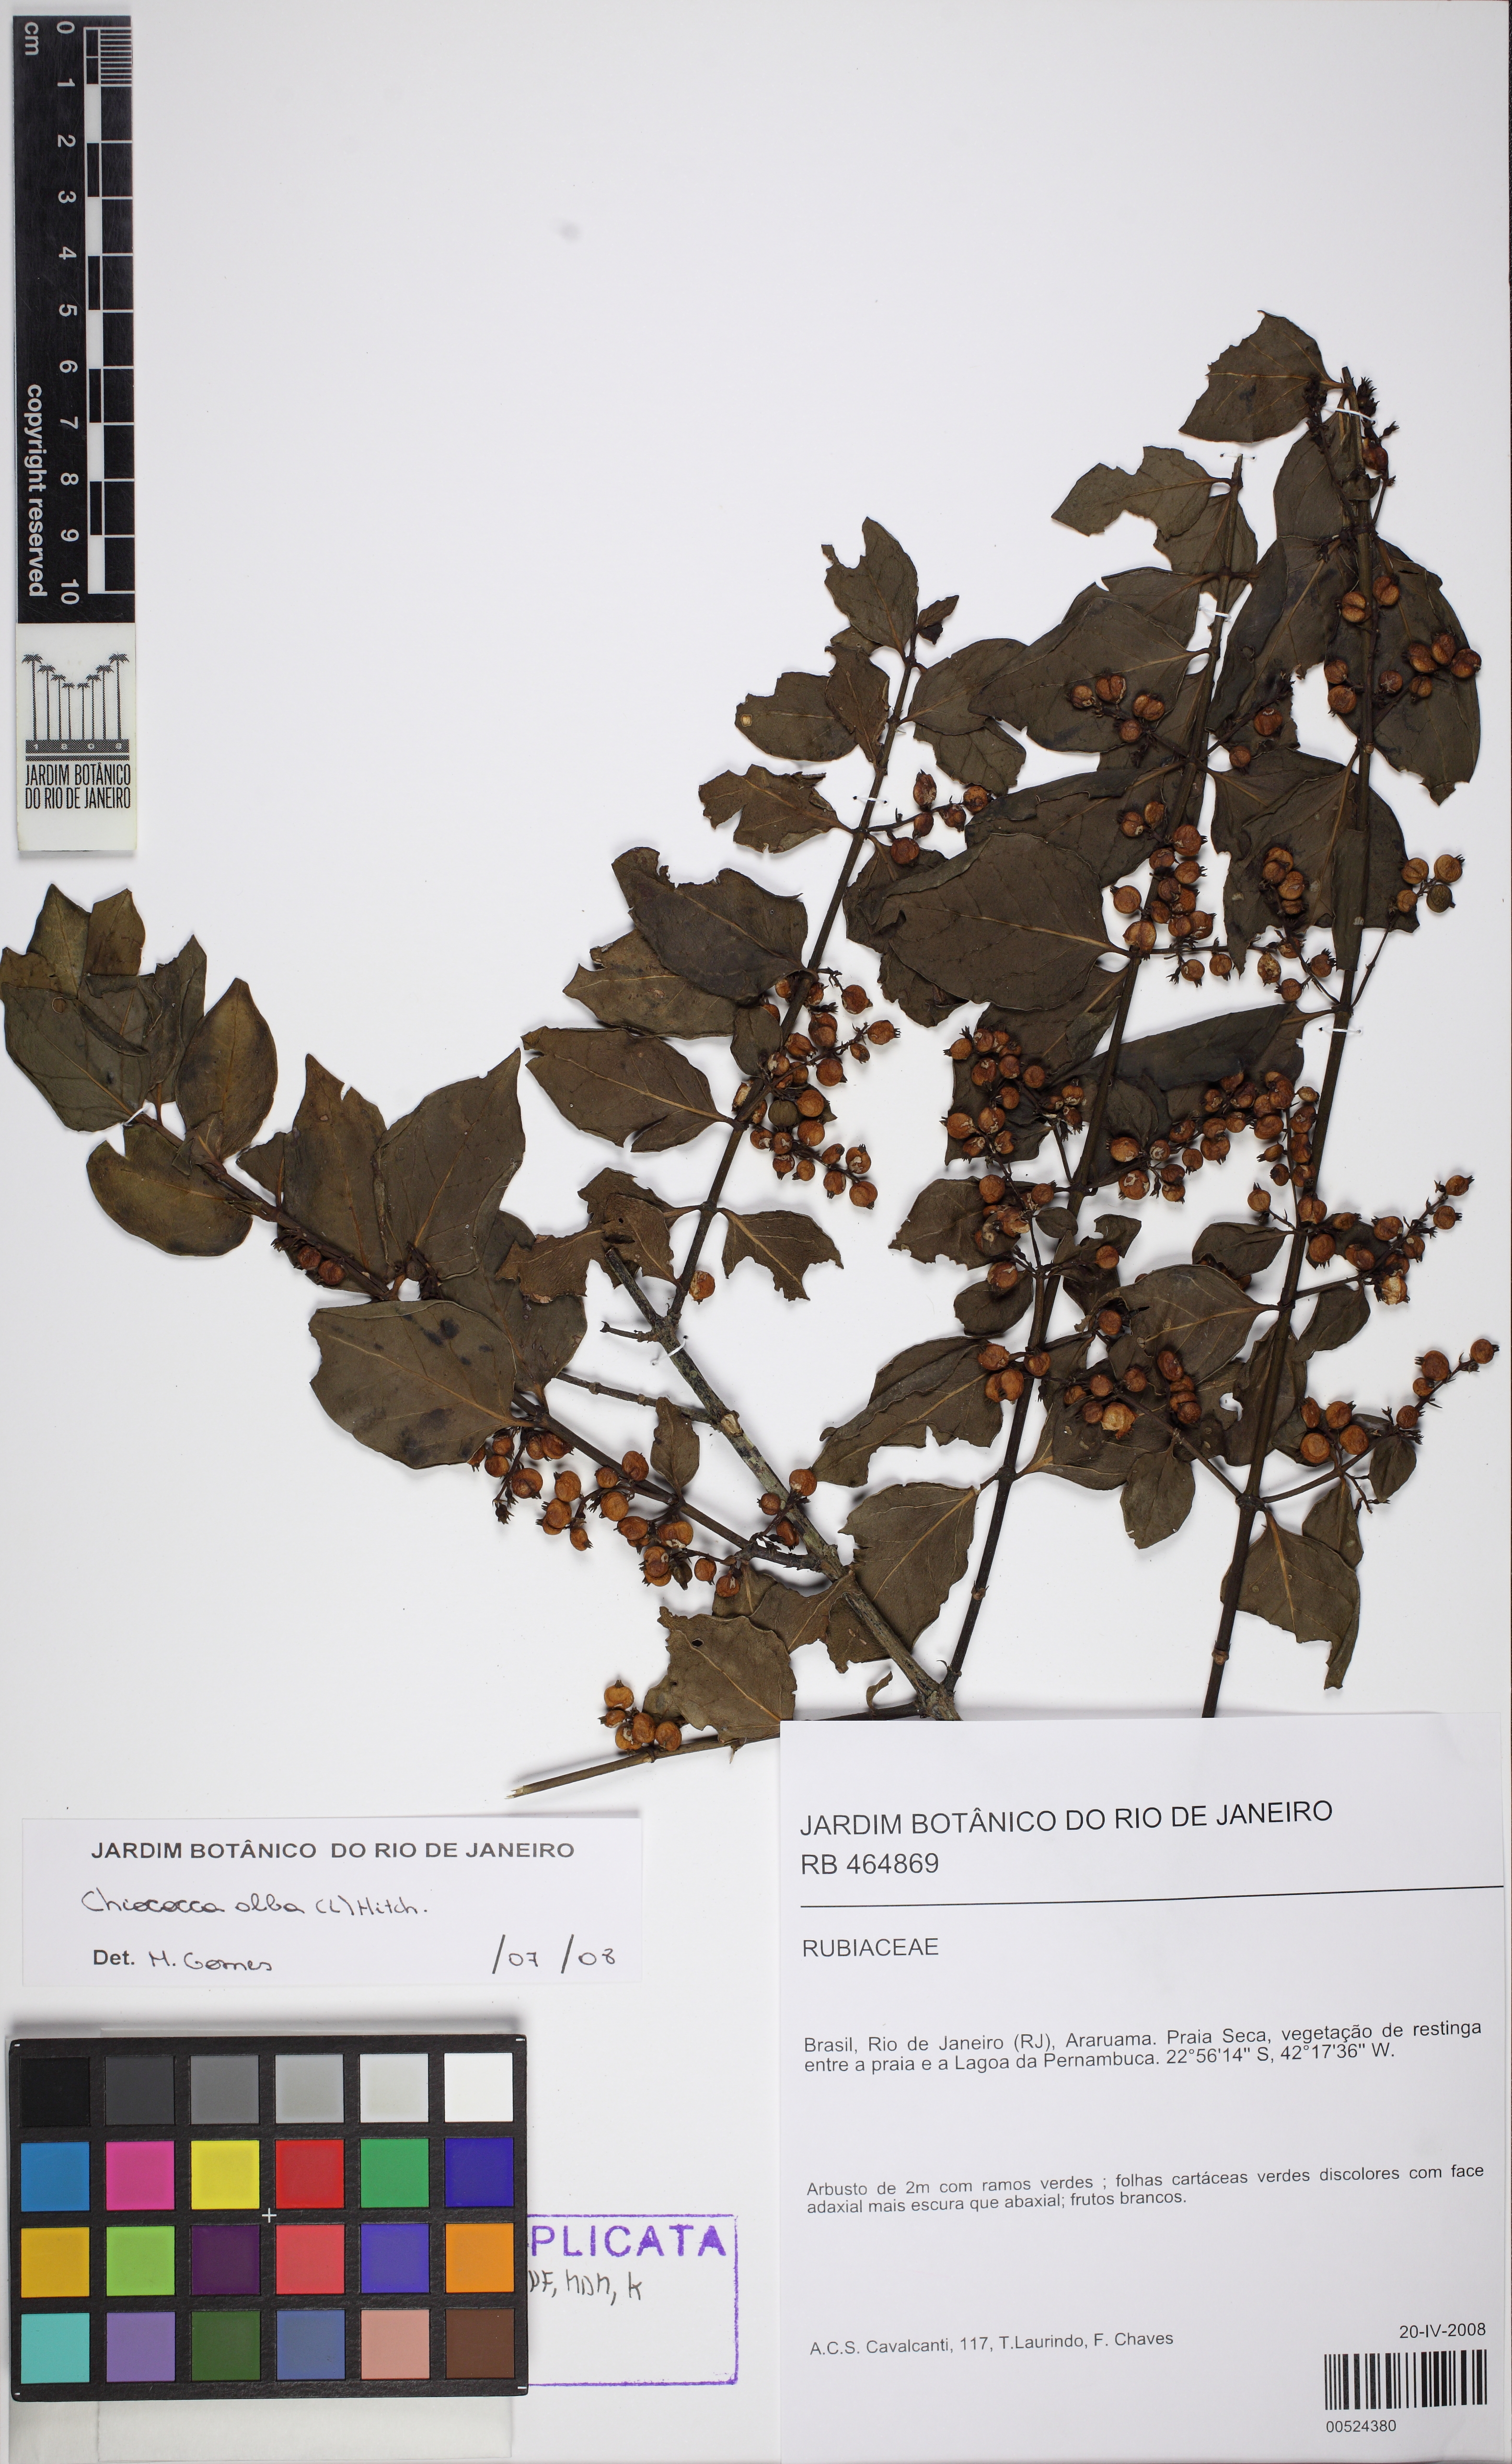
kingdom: Plantae
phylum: Tracheophyta
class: Magnoliopsida
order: Gentianales
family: Rubiaceae
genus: Chiococca
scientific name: Chiococca alba
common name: Snowberry
